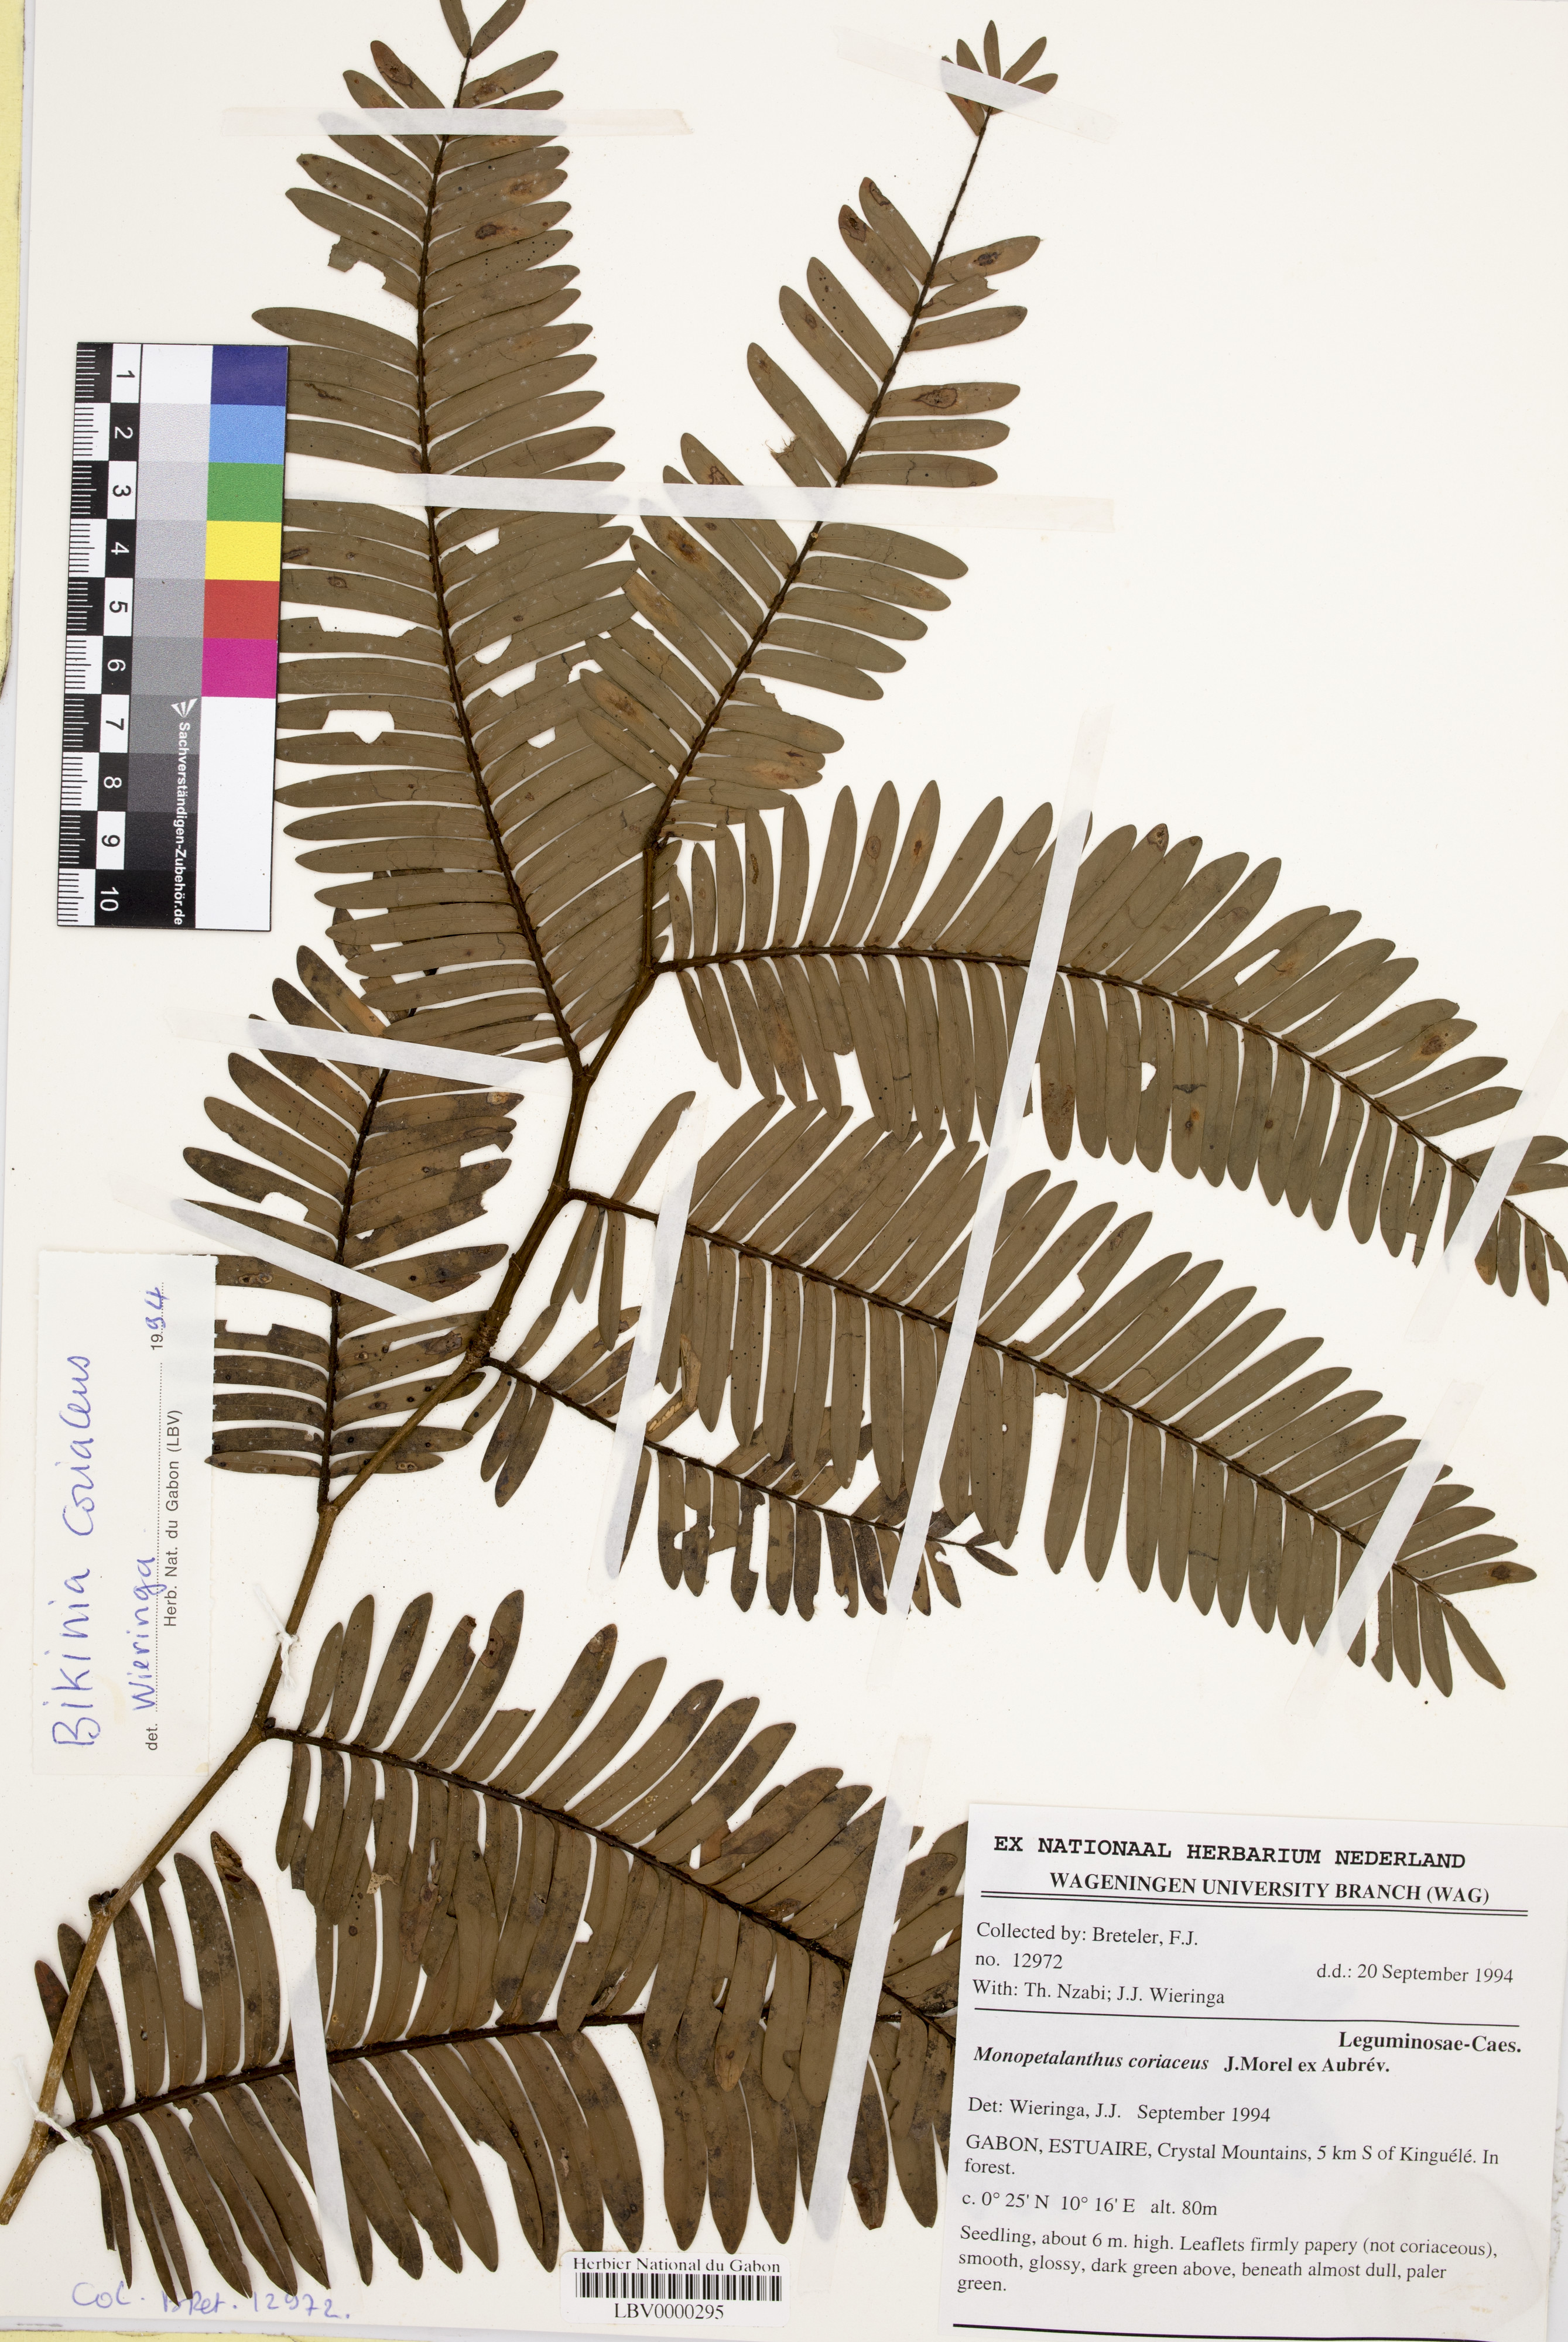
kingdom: Plantae
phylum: Tracheophyta
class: Magnoliopsida
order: Fabales
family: Fabaceae
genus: Bikinia
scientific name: Bikinia coriacea
